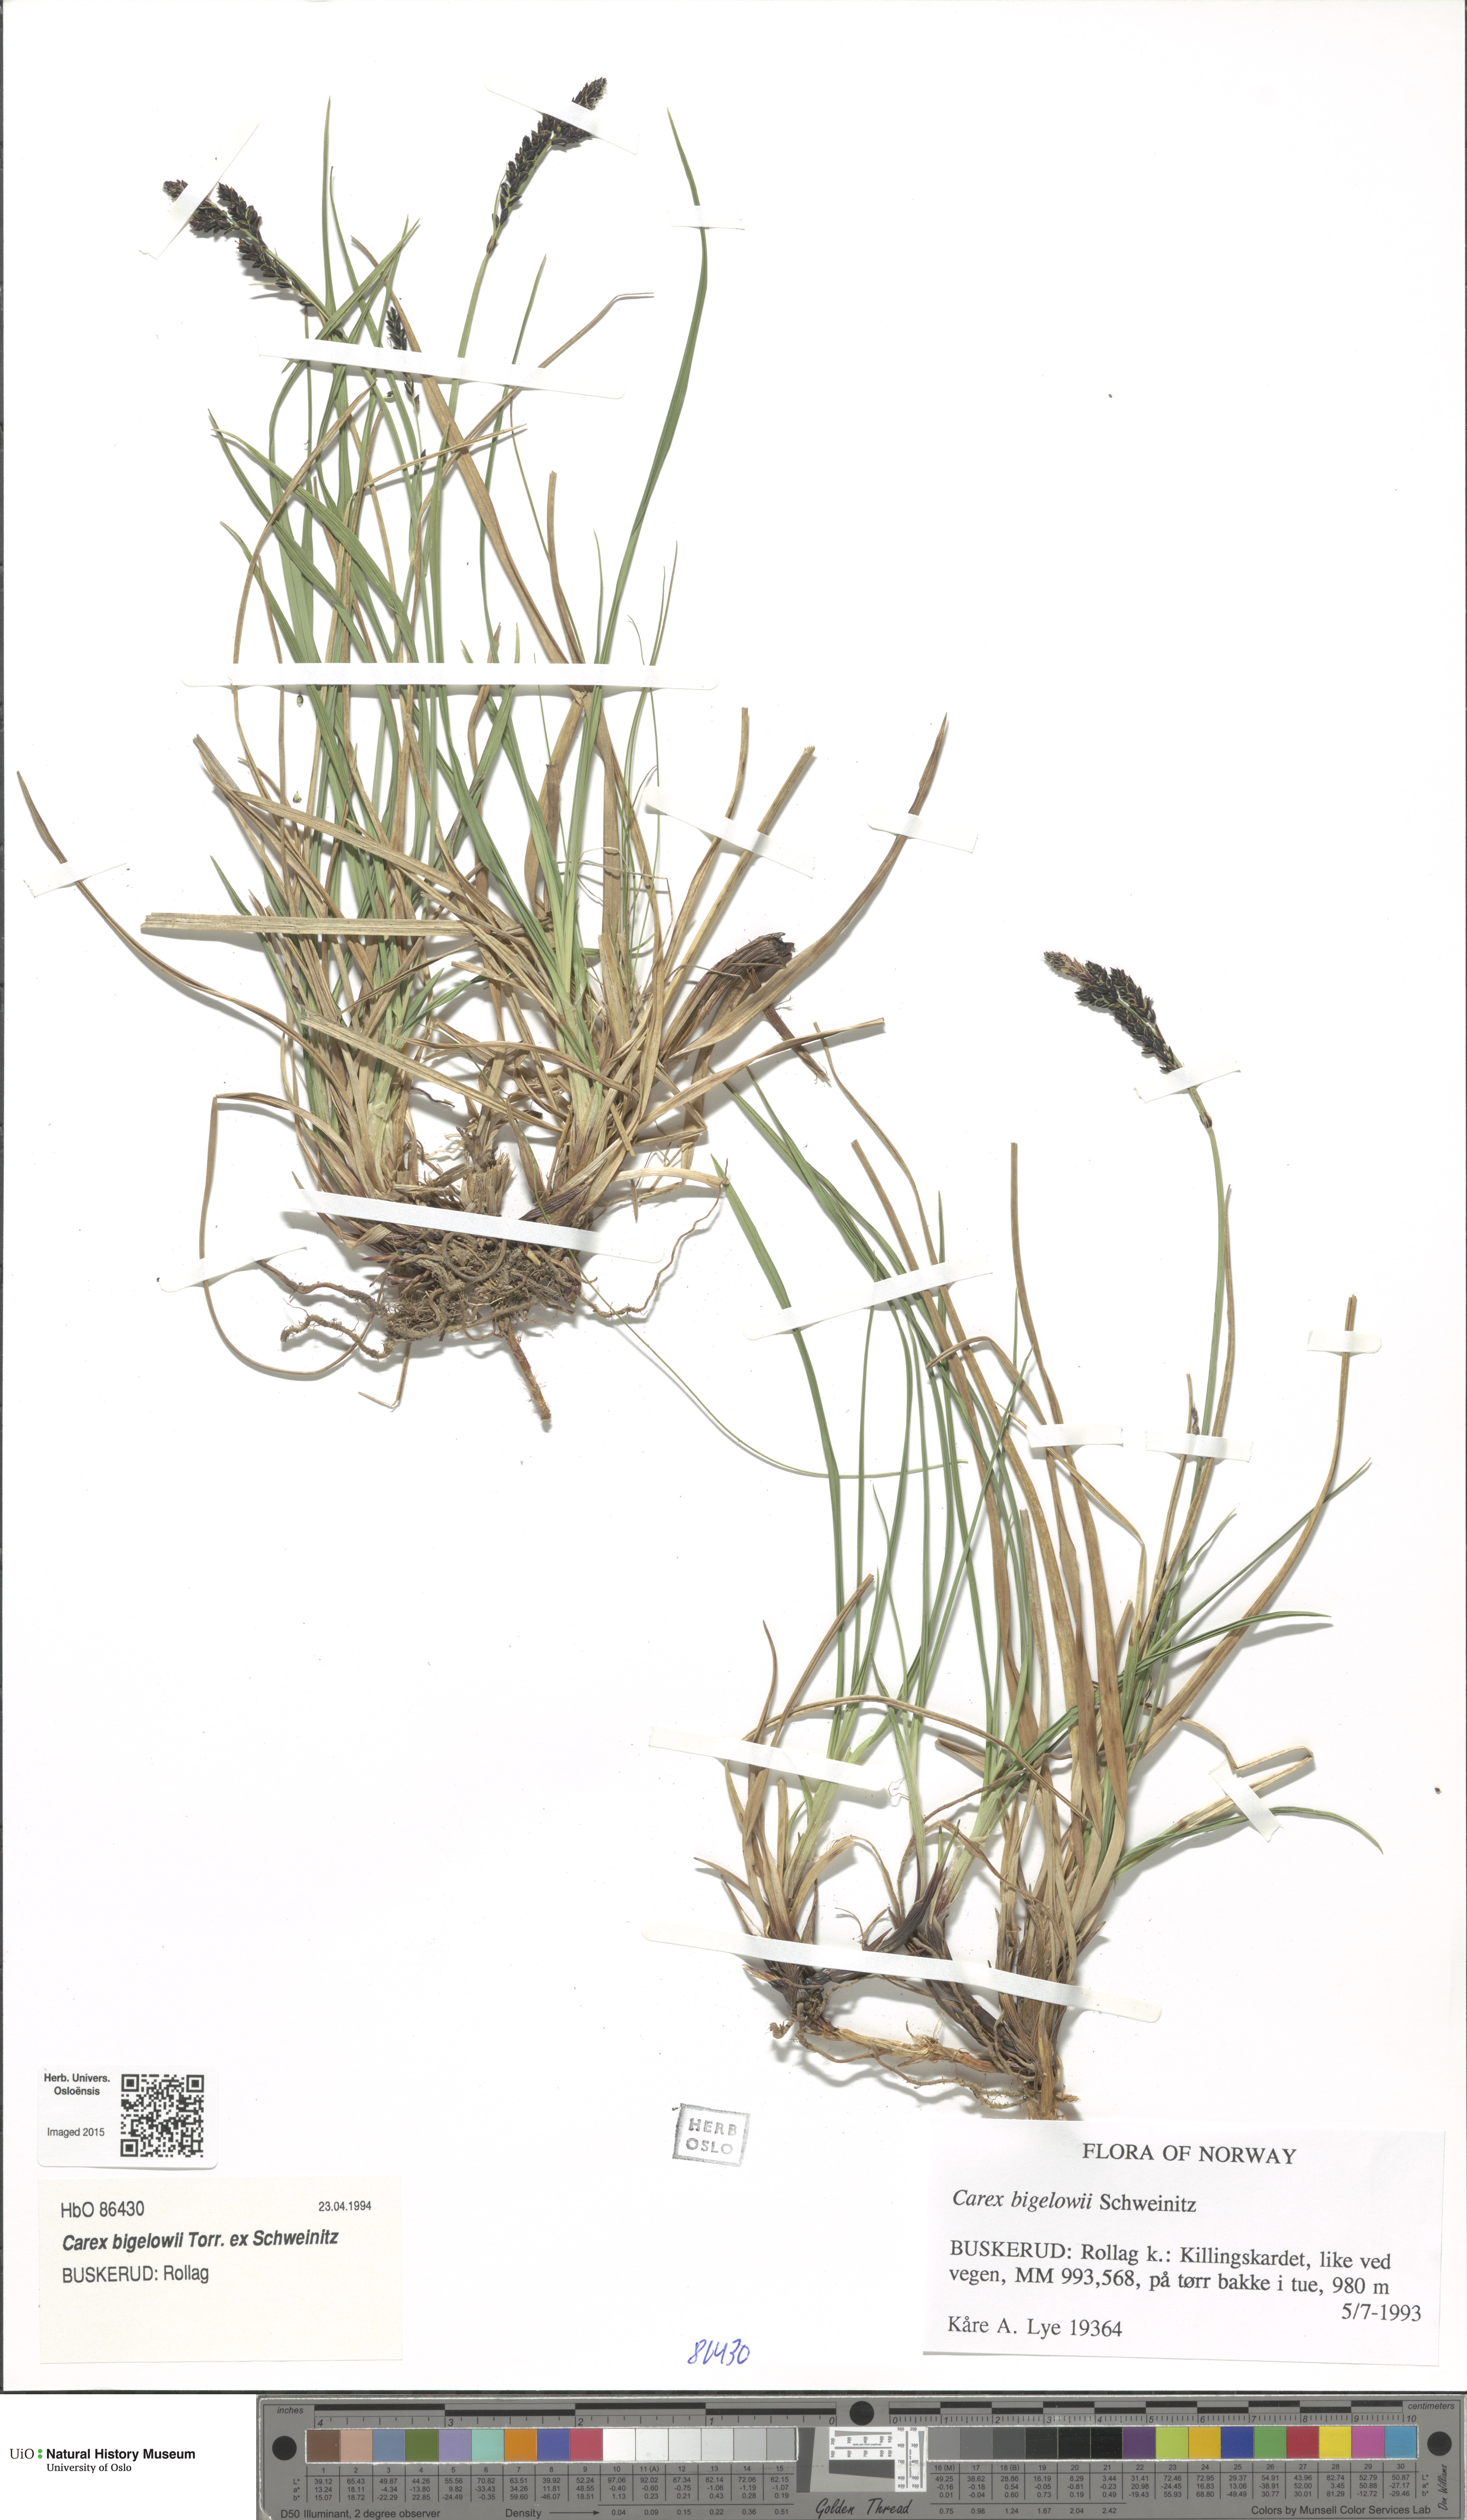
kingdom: Plantae
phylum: Tracheophyta
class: Liliopsida
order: Poales
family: Cyperaceae
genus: Carex
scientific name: Carex bigelowii
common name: Stiff sedge
